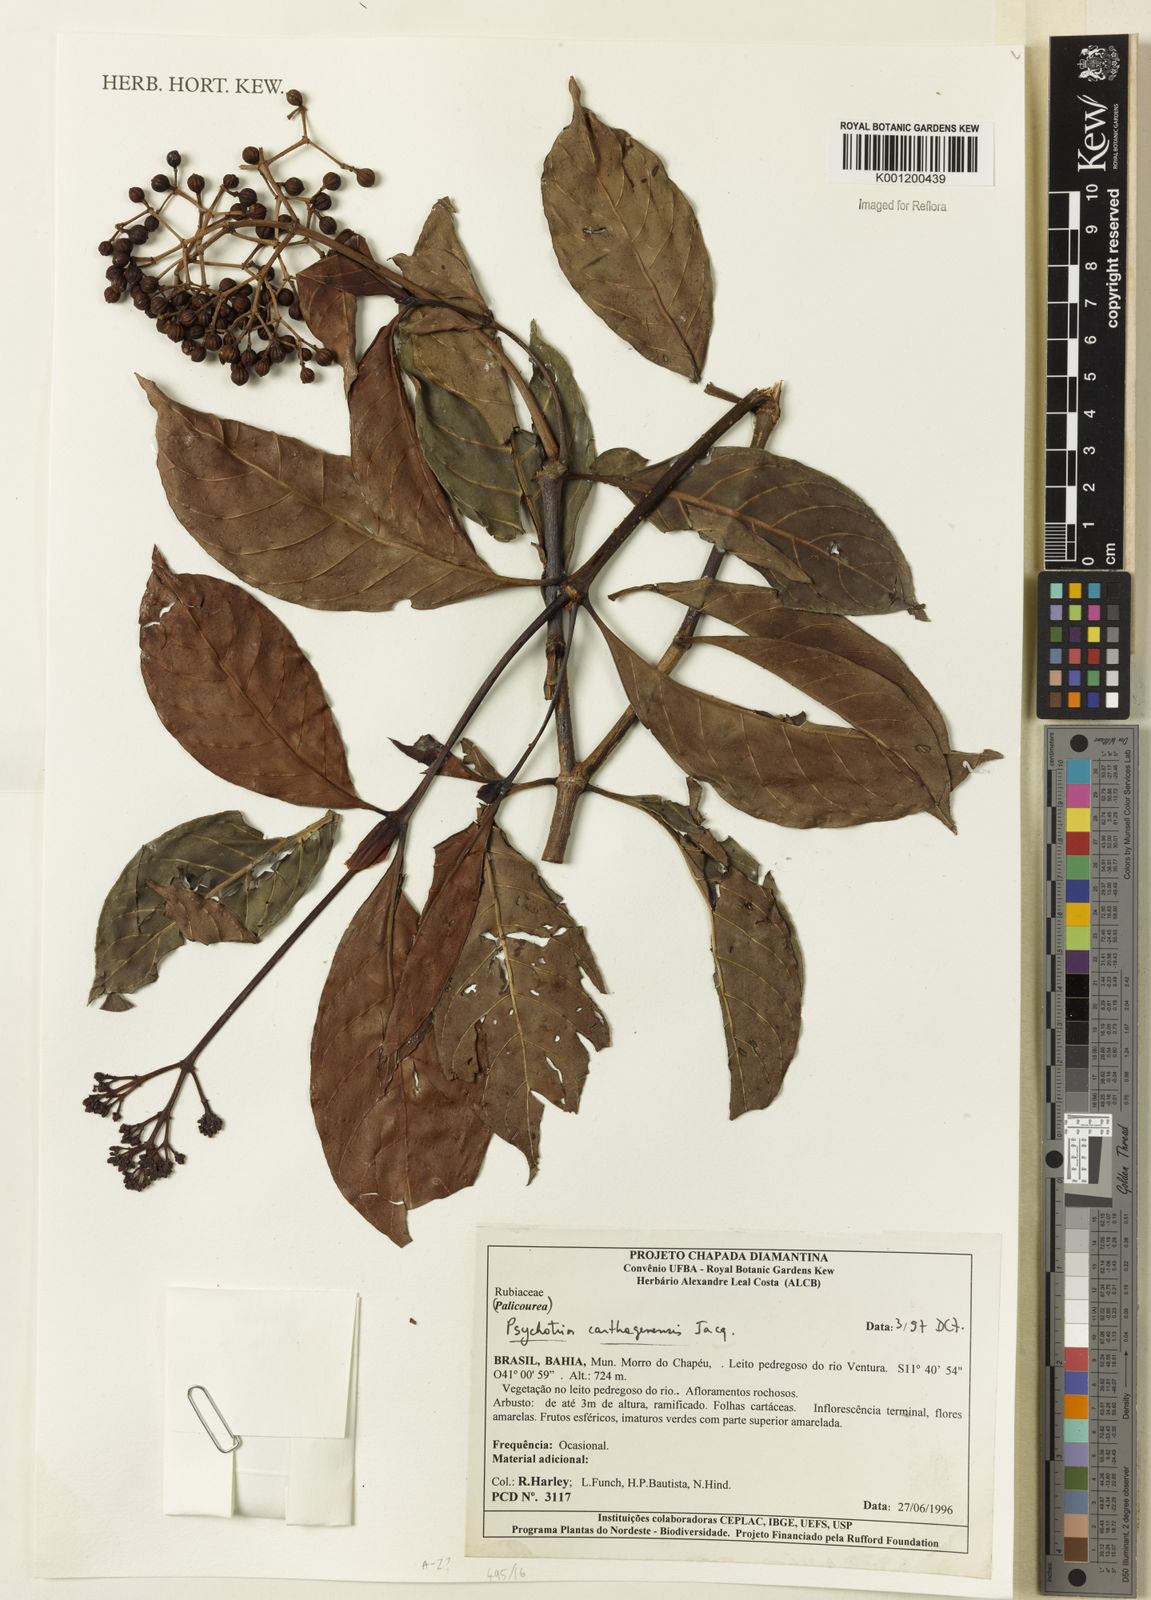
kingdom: Plantae
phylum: Tracheophyta
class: Magnoliopsida
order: Gentianales
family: Rubiaceae
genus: Psychotria
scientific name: Psychotria carthagenensis
